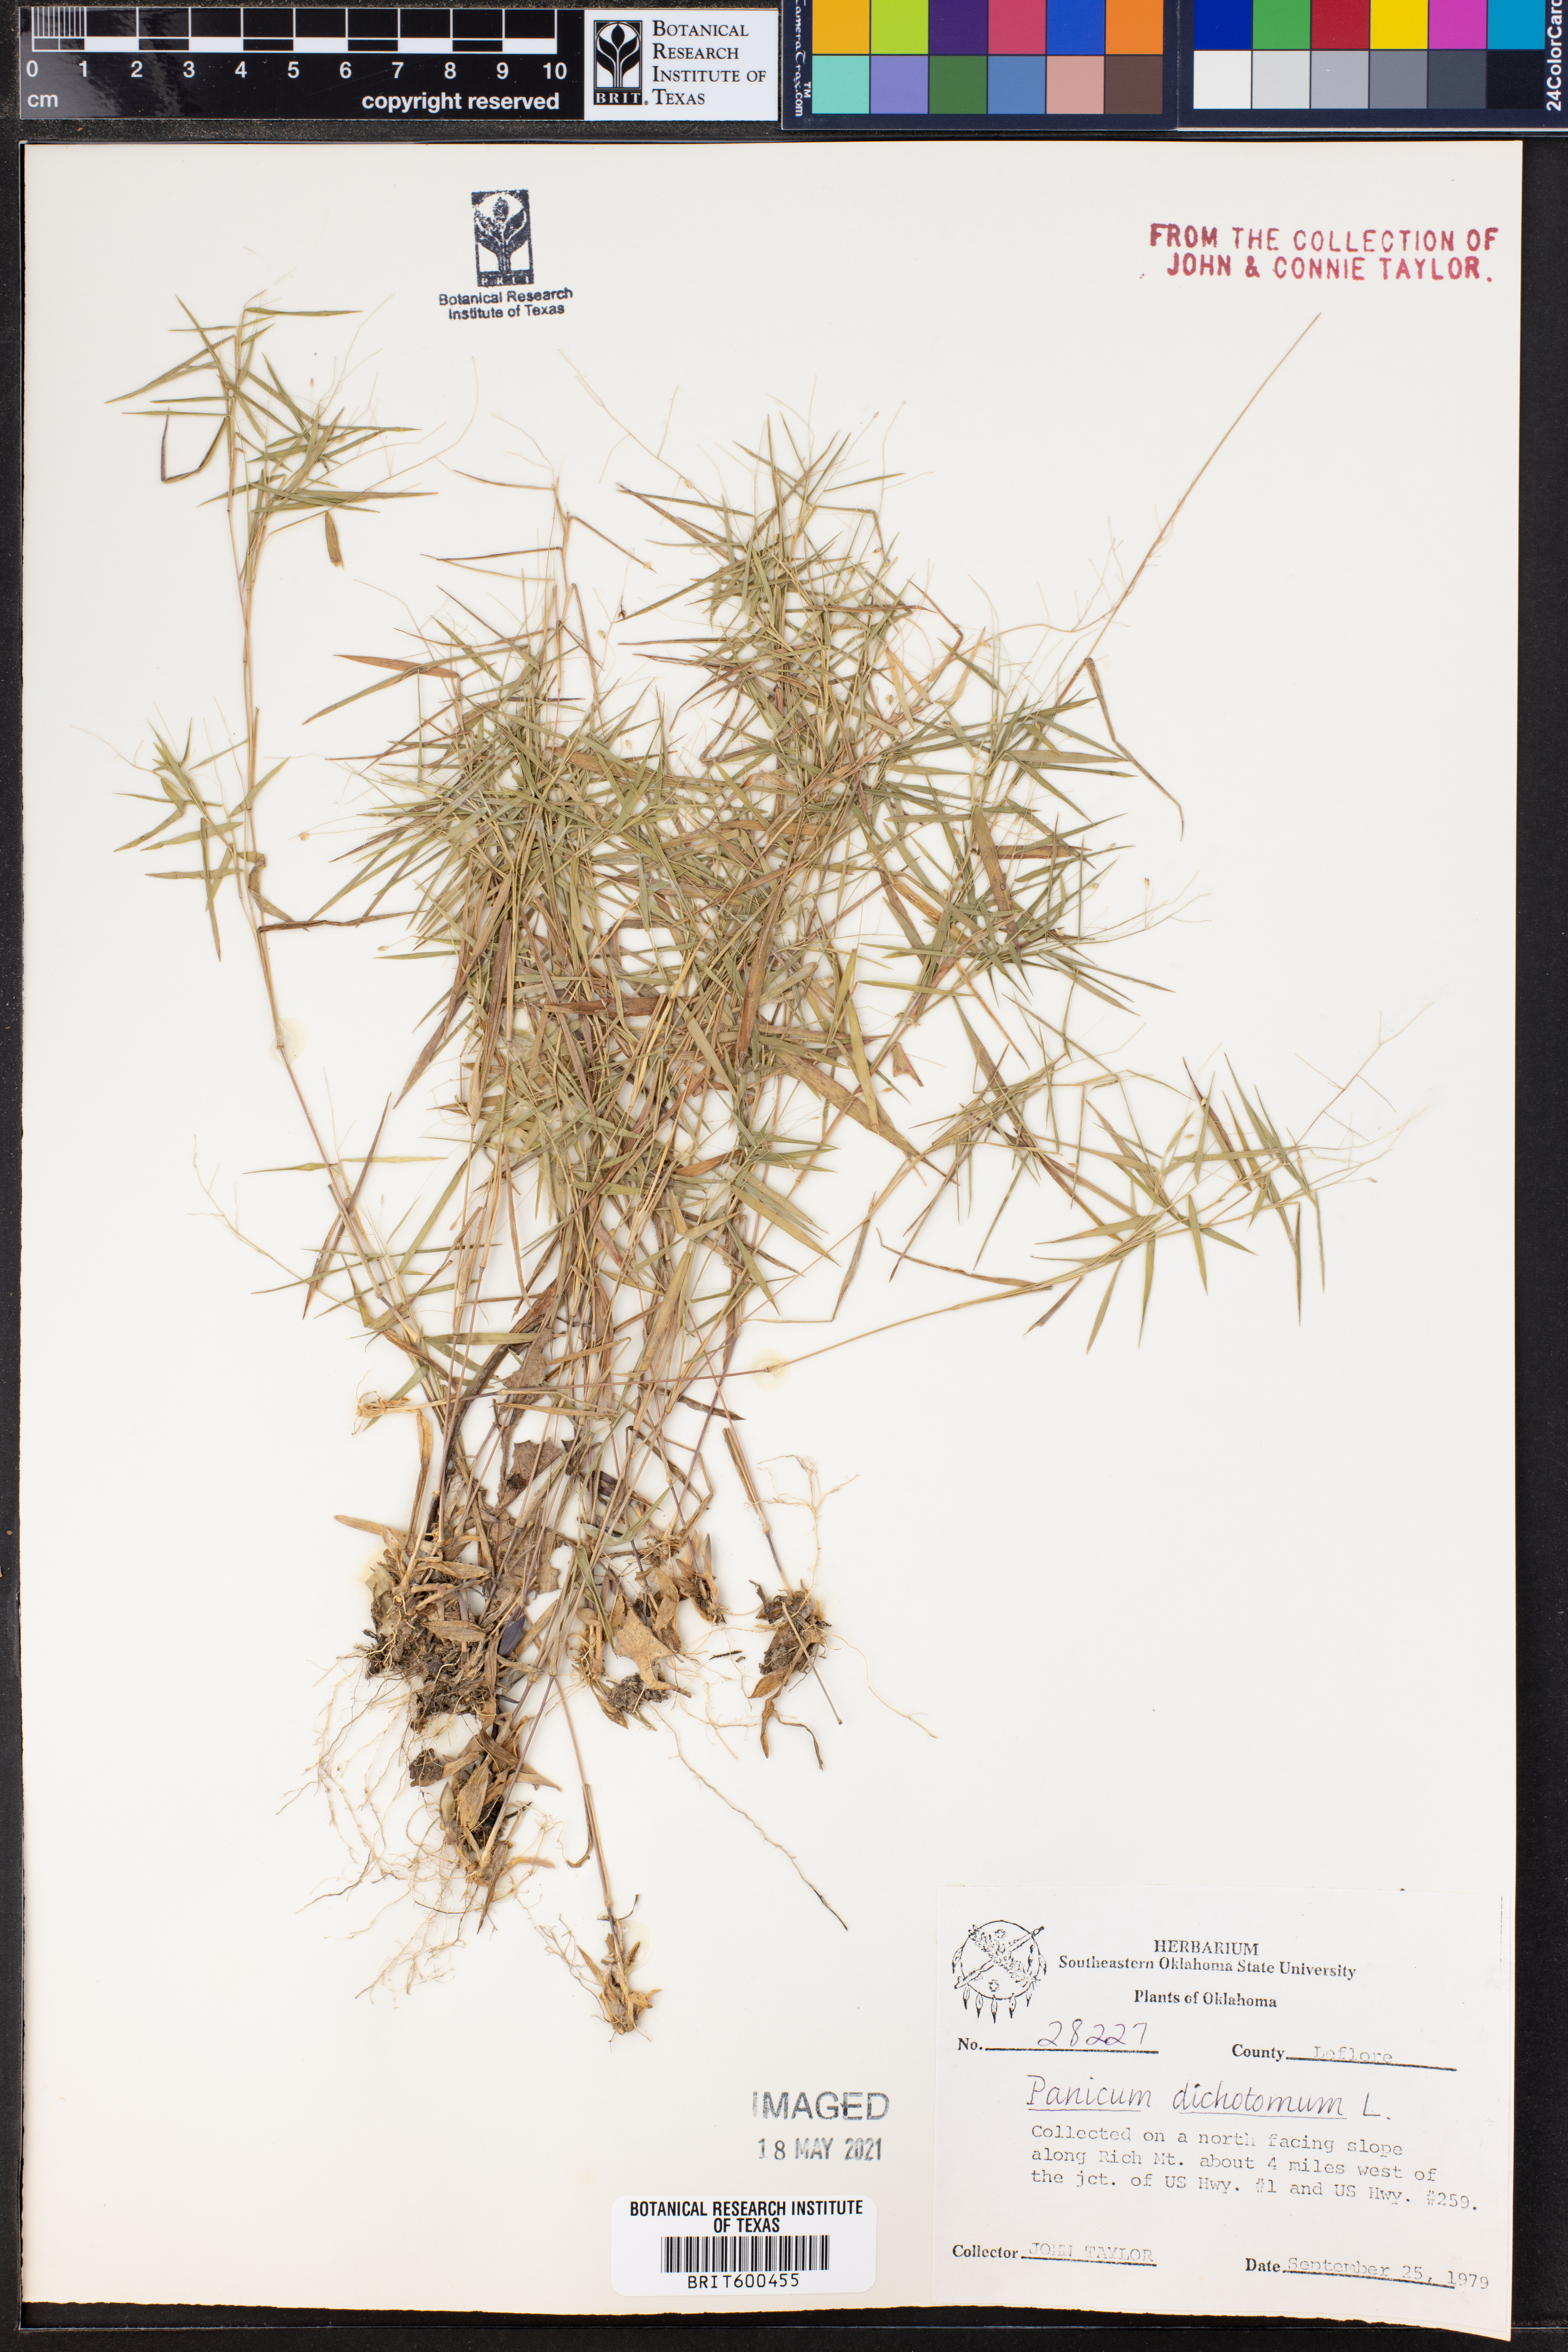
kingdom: Plantae
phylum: Tracheophyta
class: Liliopsida
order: Poales
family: Poaceae
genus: Dichanthelium
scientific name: Dichanthelium dichotomum
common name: Cypress panicgrass
